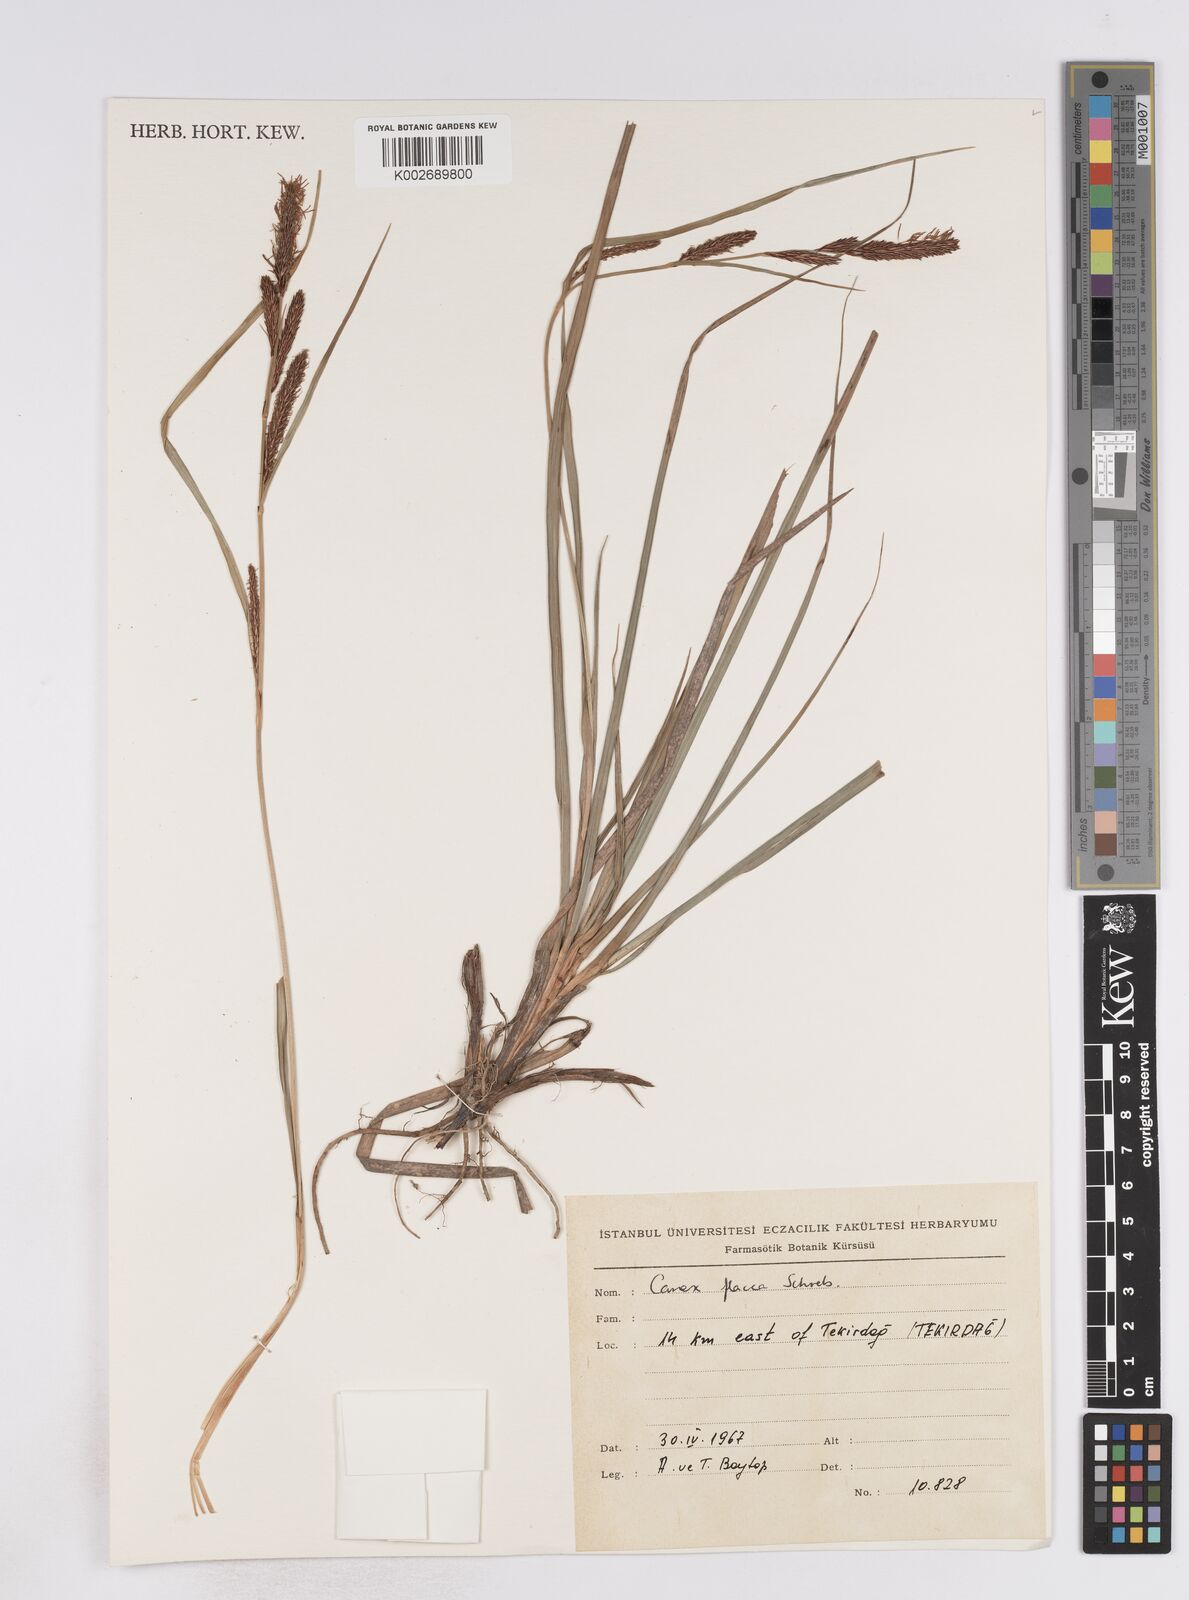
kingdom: Plantae
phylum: Tracheophyta
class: Liliopsida
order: Poales
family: Cyperaceae
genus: Carex
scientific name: Carex flacca
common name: Glaucous sedge
